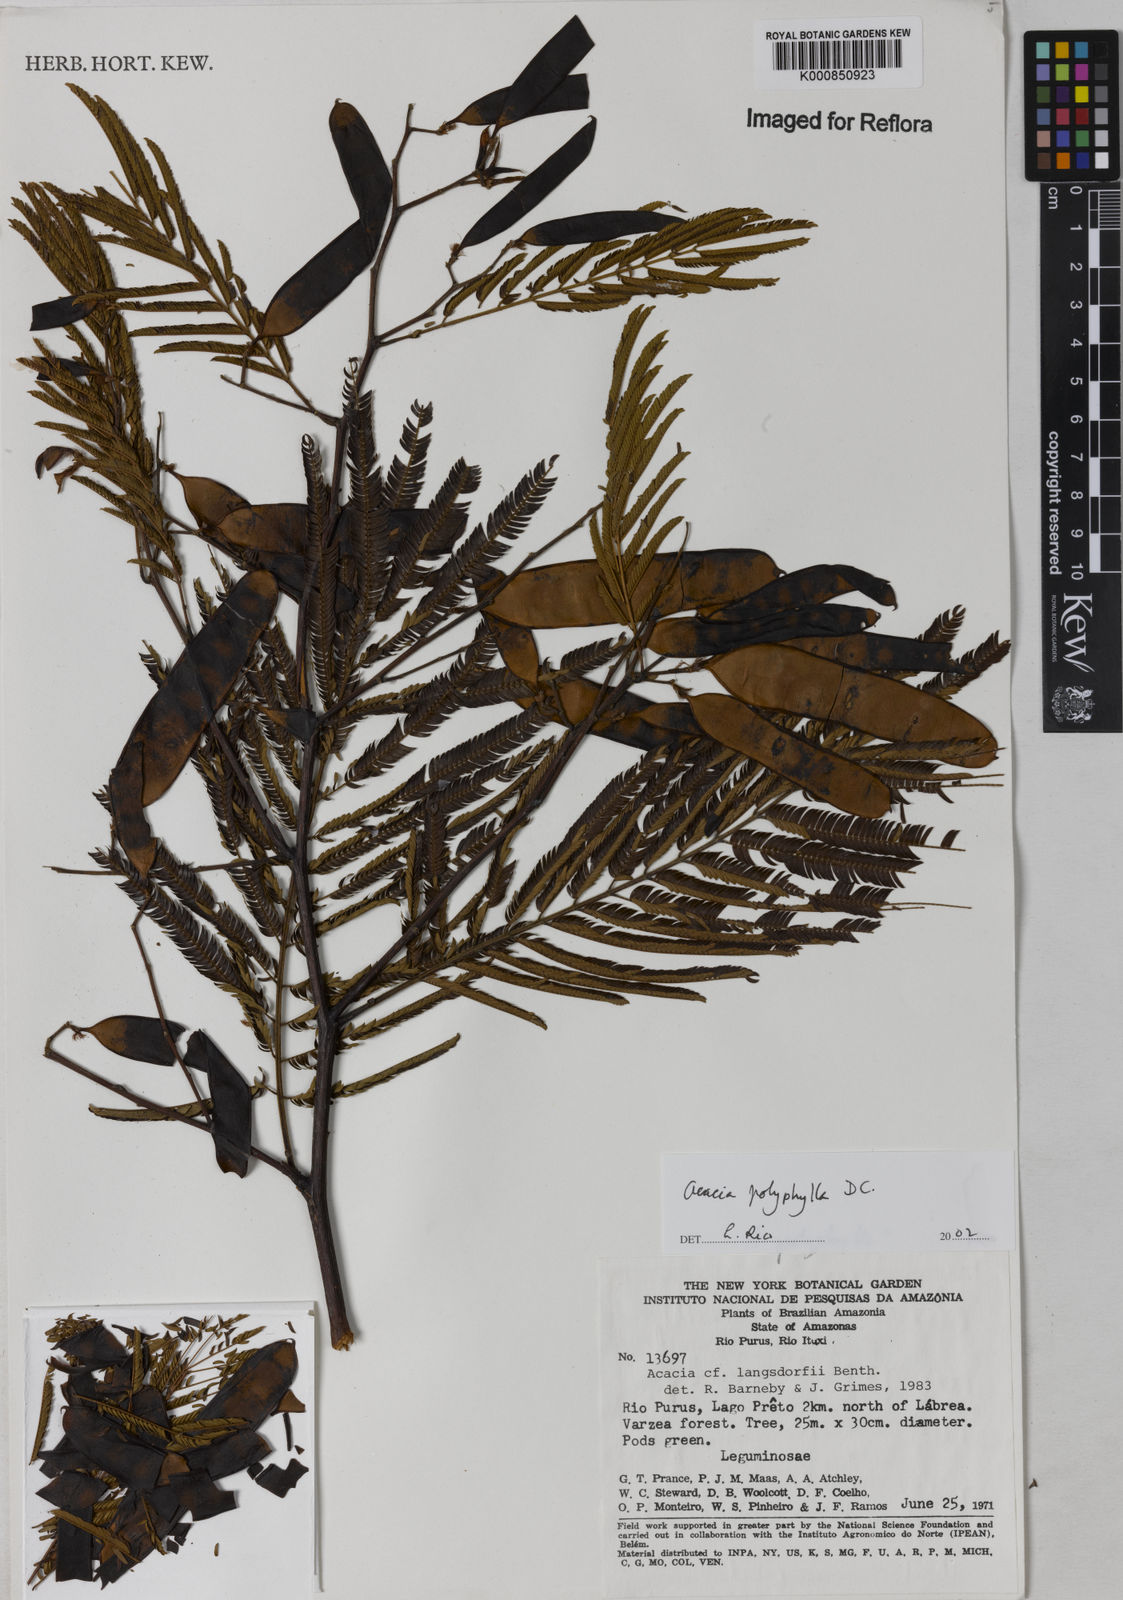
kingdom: Plantae
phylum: Tracheophyta
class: Magnoliopsida
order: Fabales
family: Fabaceae
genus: Senegalia
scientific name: Senegalia polyphylla
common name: White-tamarind
